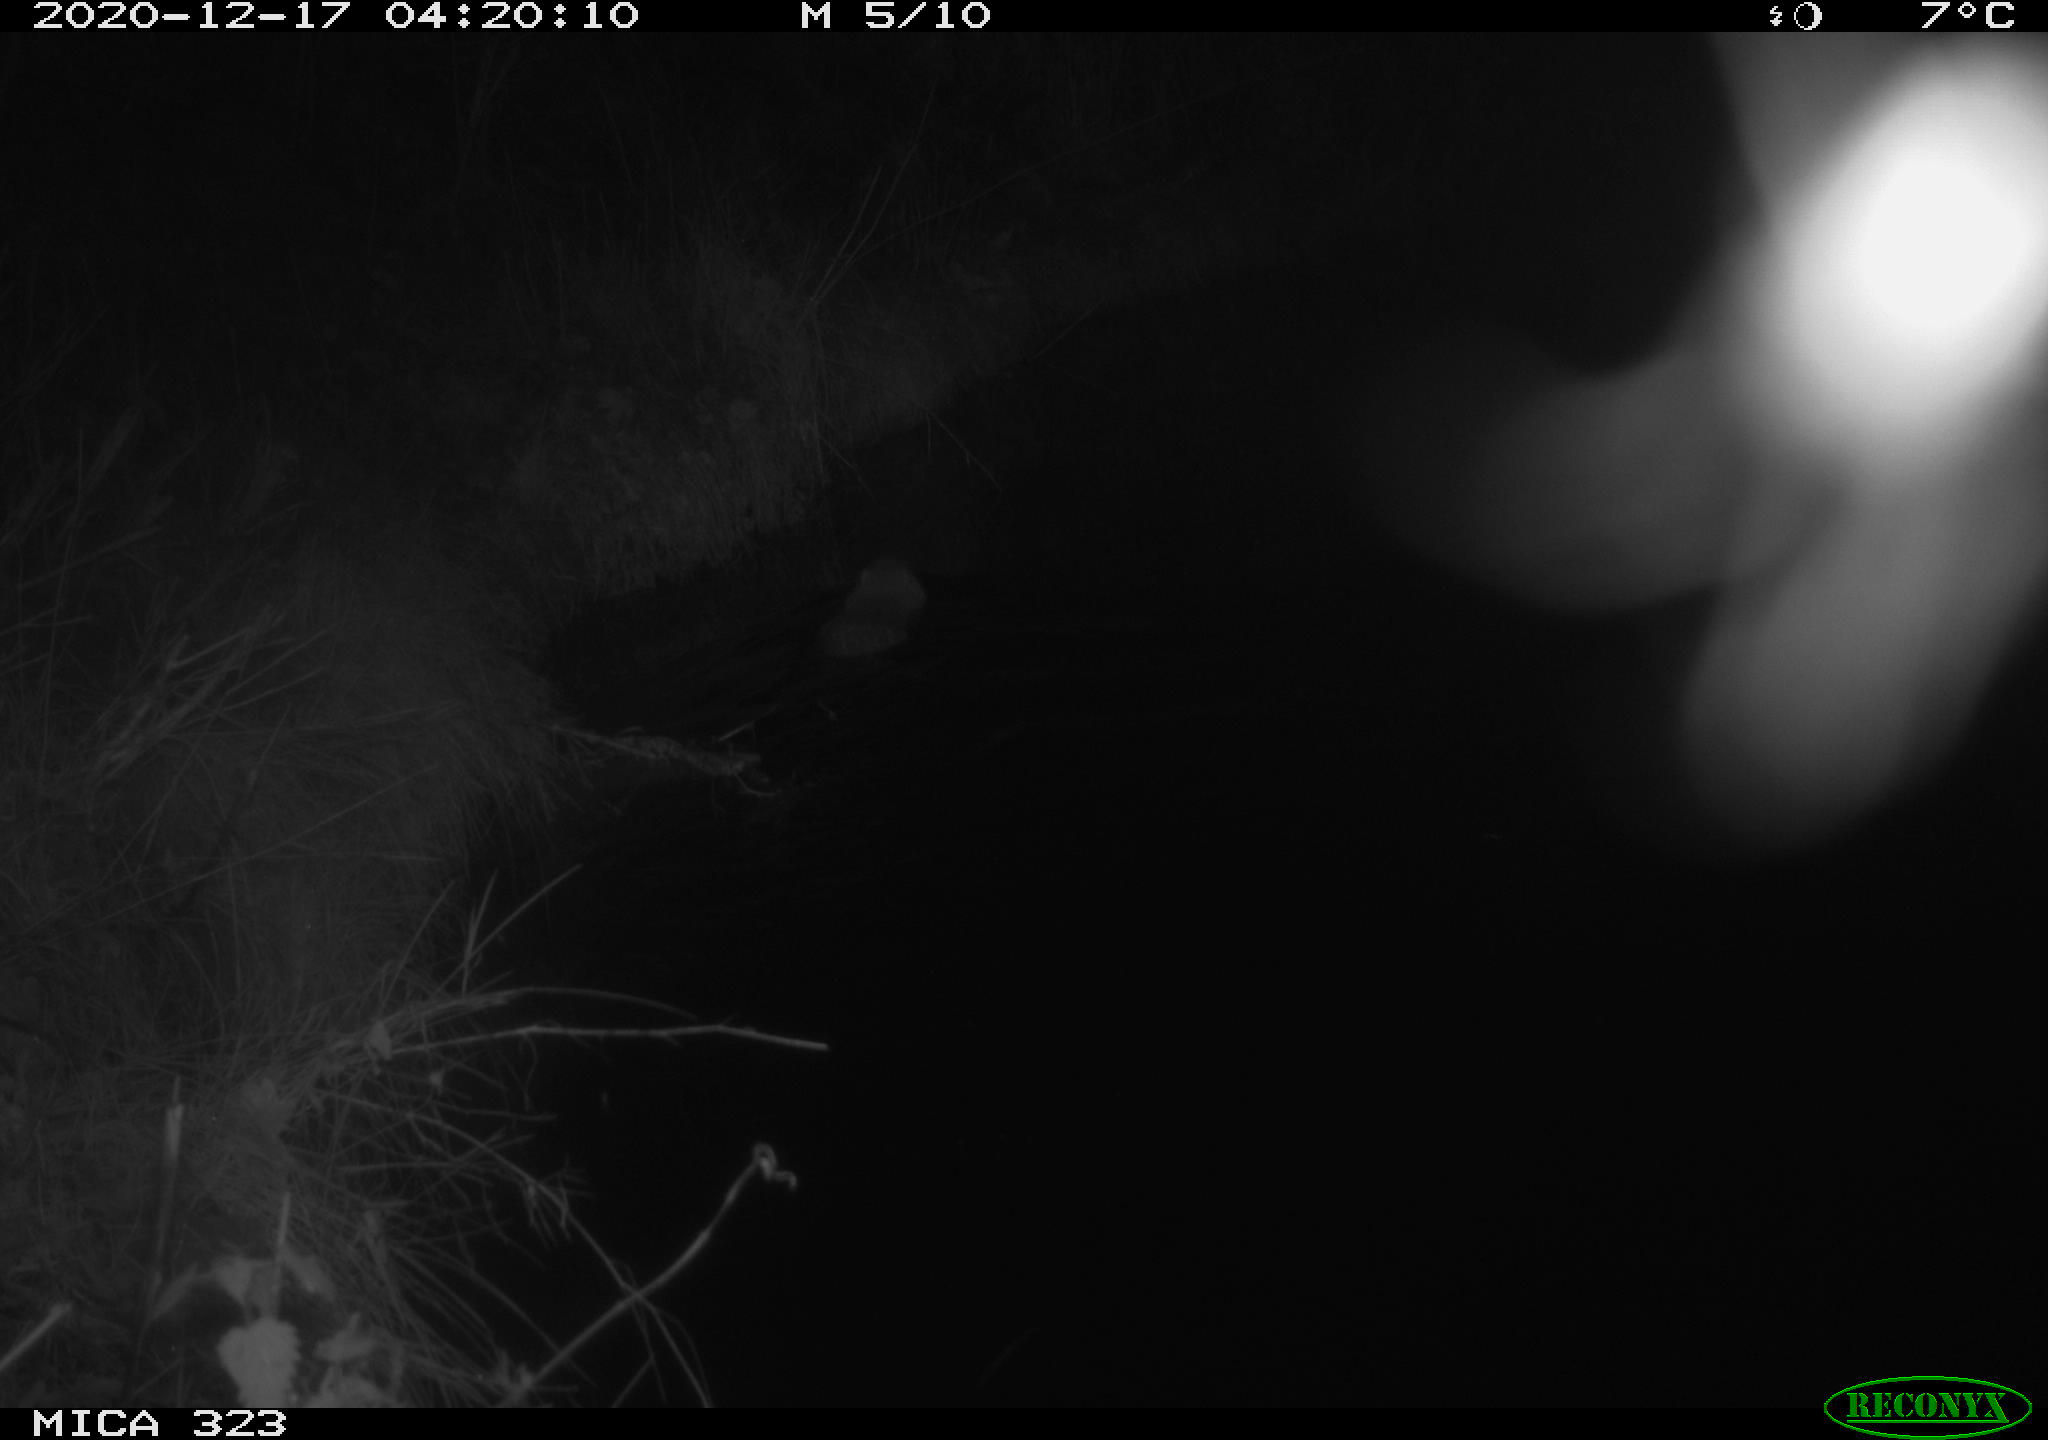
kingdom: Animalia
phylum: Chordata
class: Mammalia
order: Rodentia
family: Myocastoridae
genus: Myocastor
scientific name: Myocastor coypus
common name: Coypu
